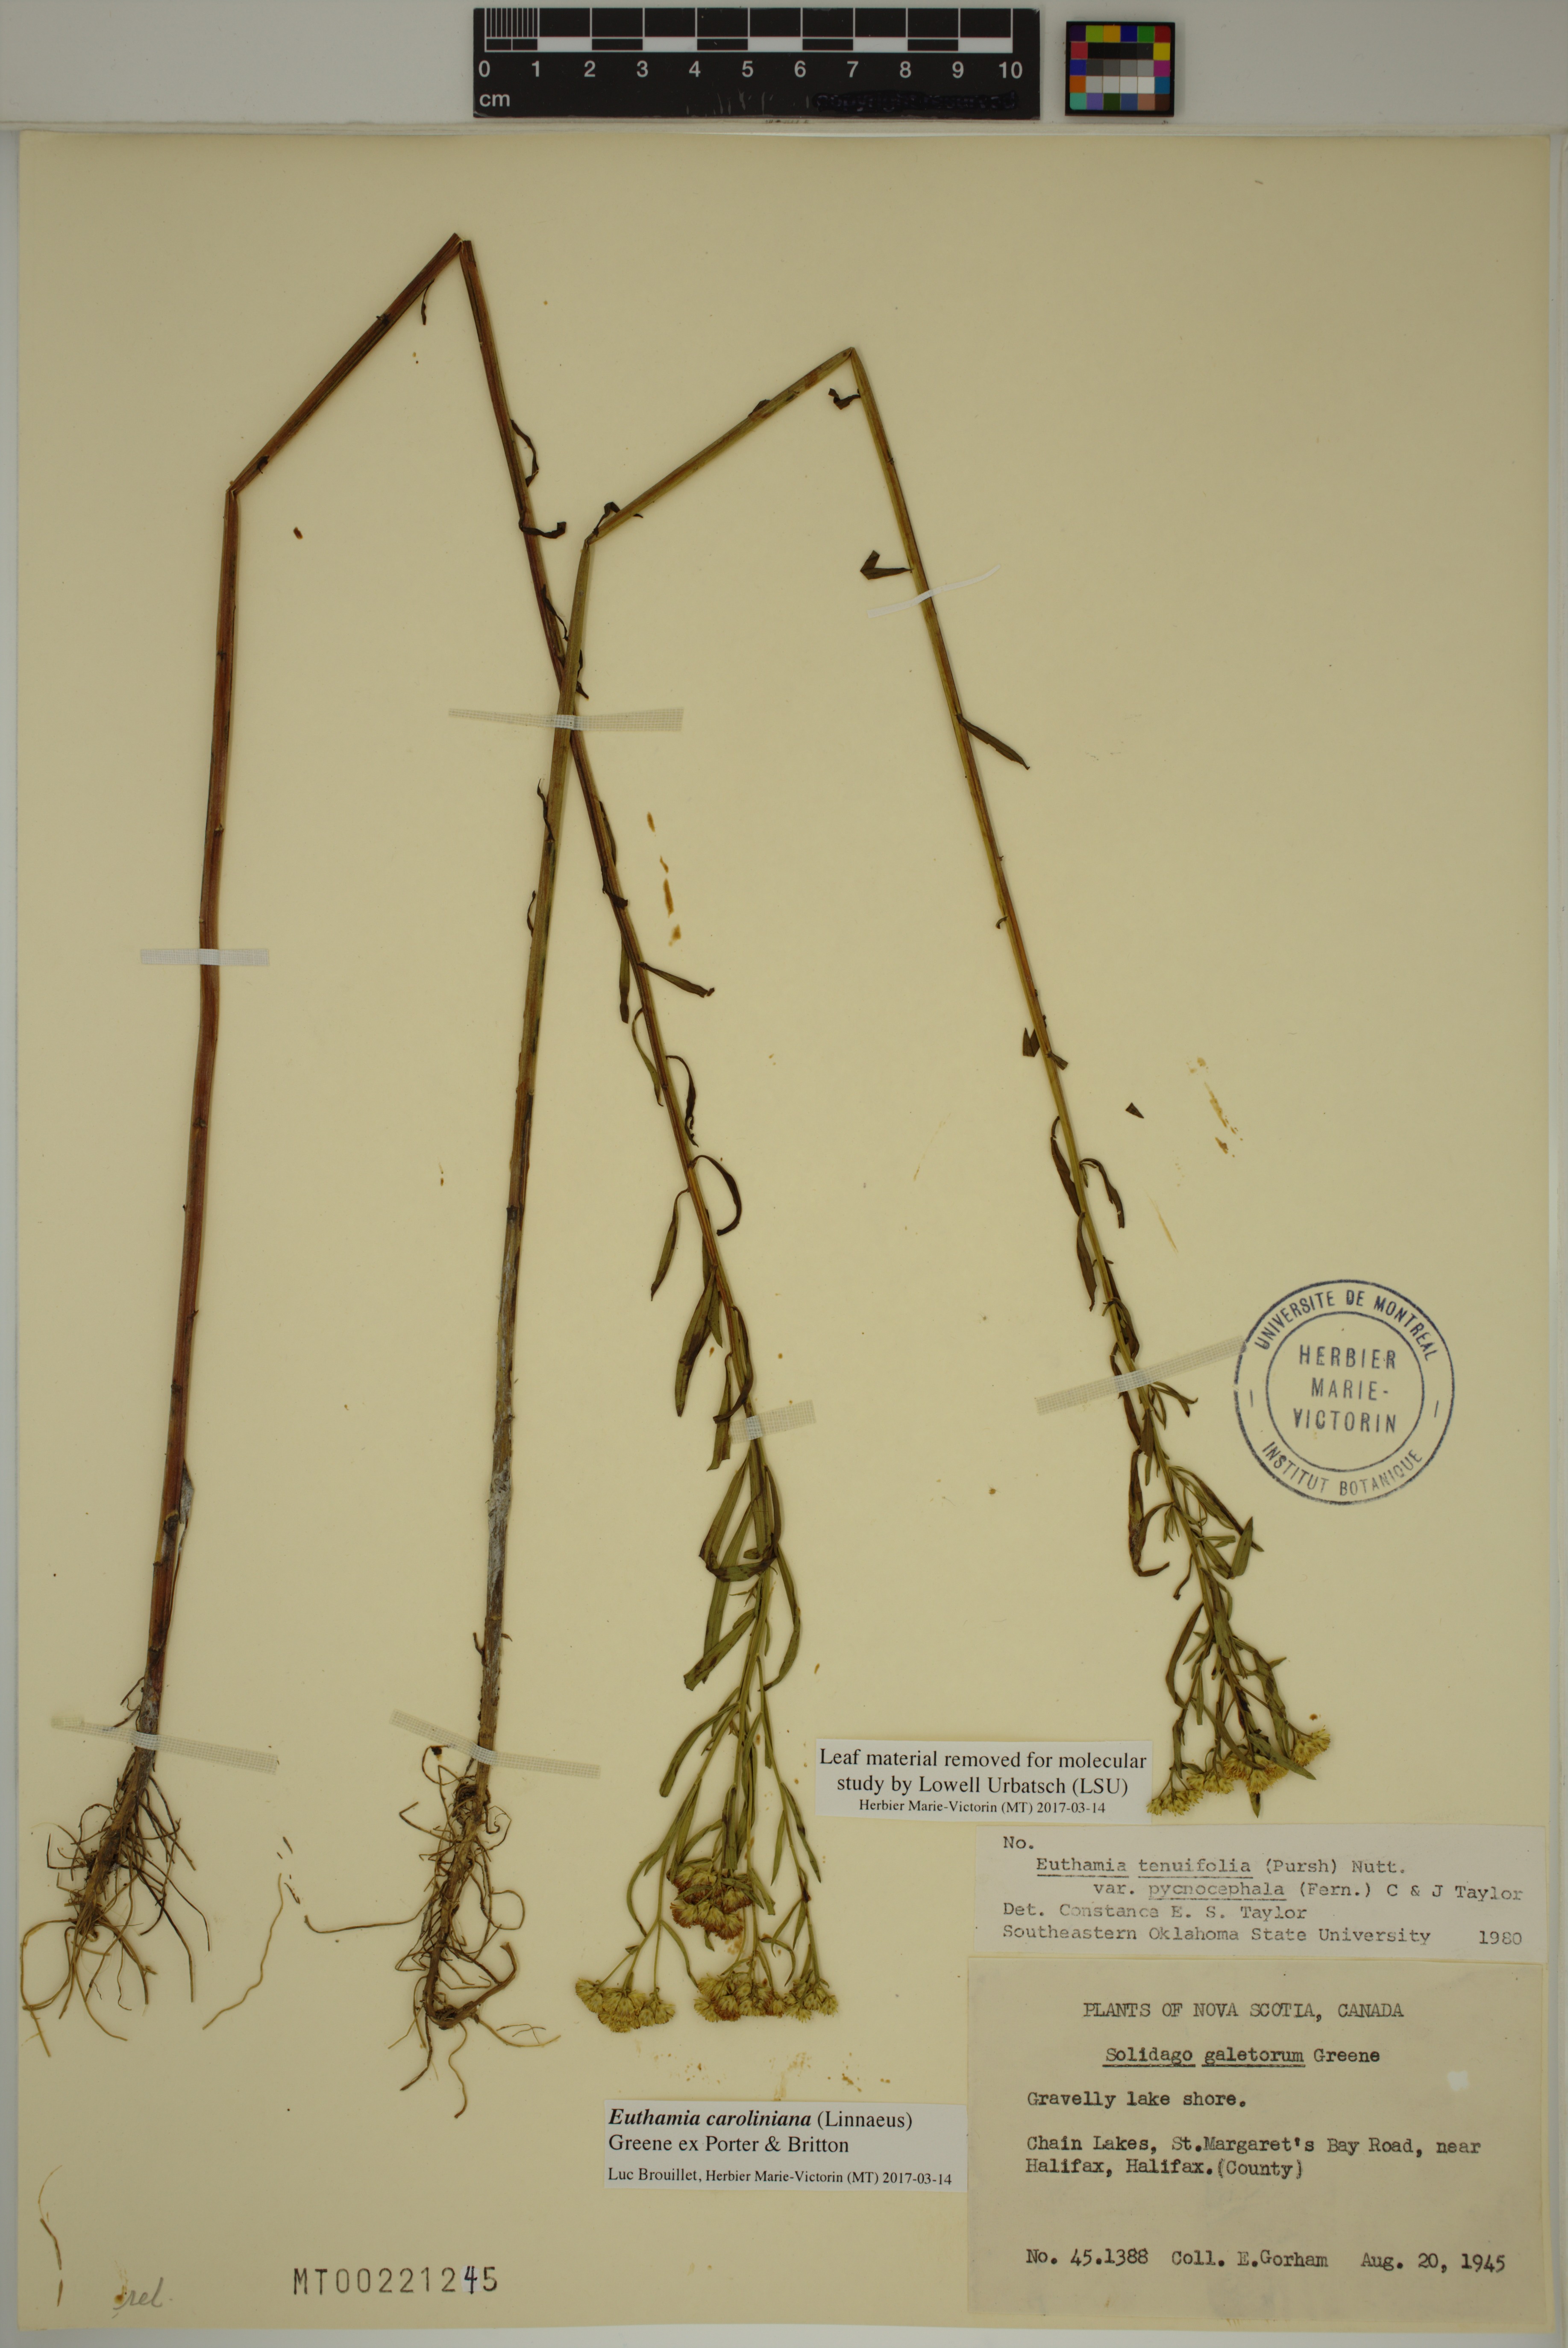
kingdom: Plantae
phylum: Tracheophyta
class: Magnoliopsida
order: Asterales
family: Asteraceae
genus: Euthamia
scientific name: Euthamia galetorum
